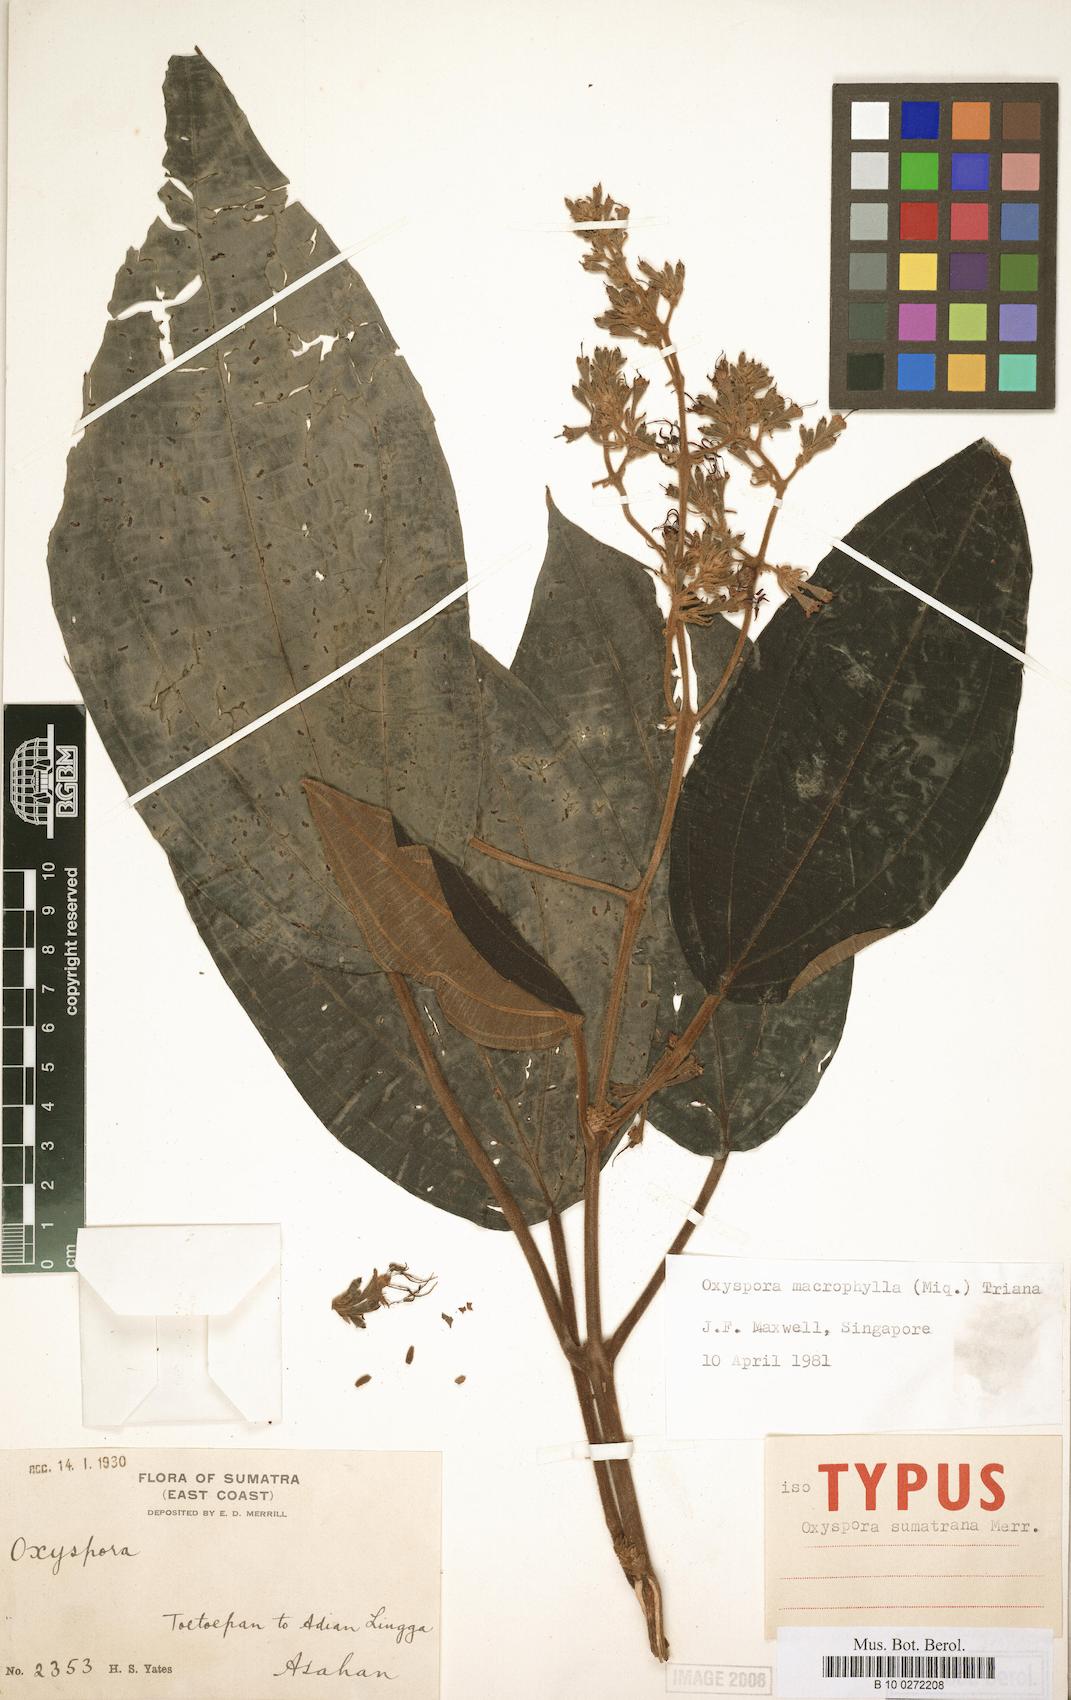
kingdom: Plantae
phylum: Tracheophyta
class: Magnoliopsida
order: Myrtales
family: Melastomataceae
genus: Hylocharis
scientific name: Hylocharis macrophylla
